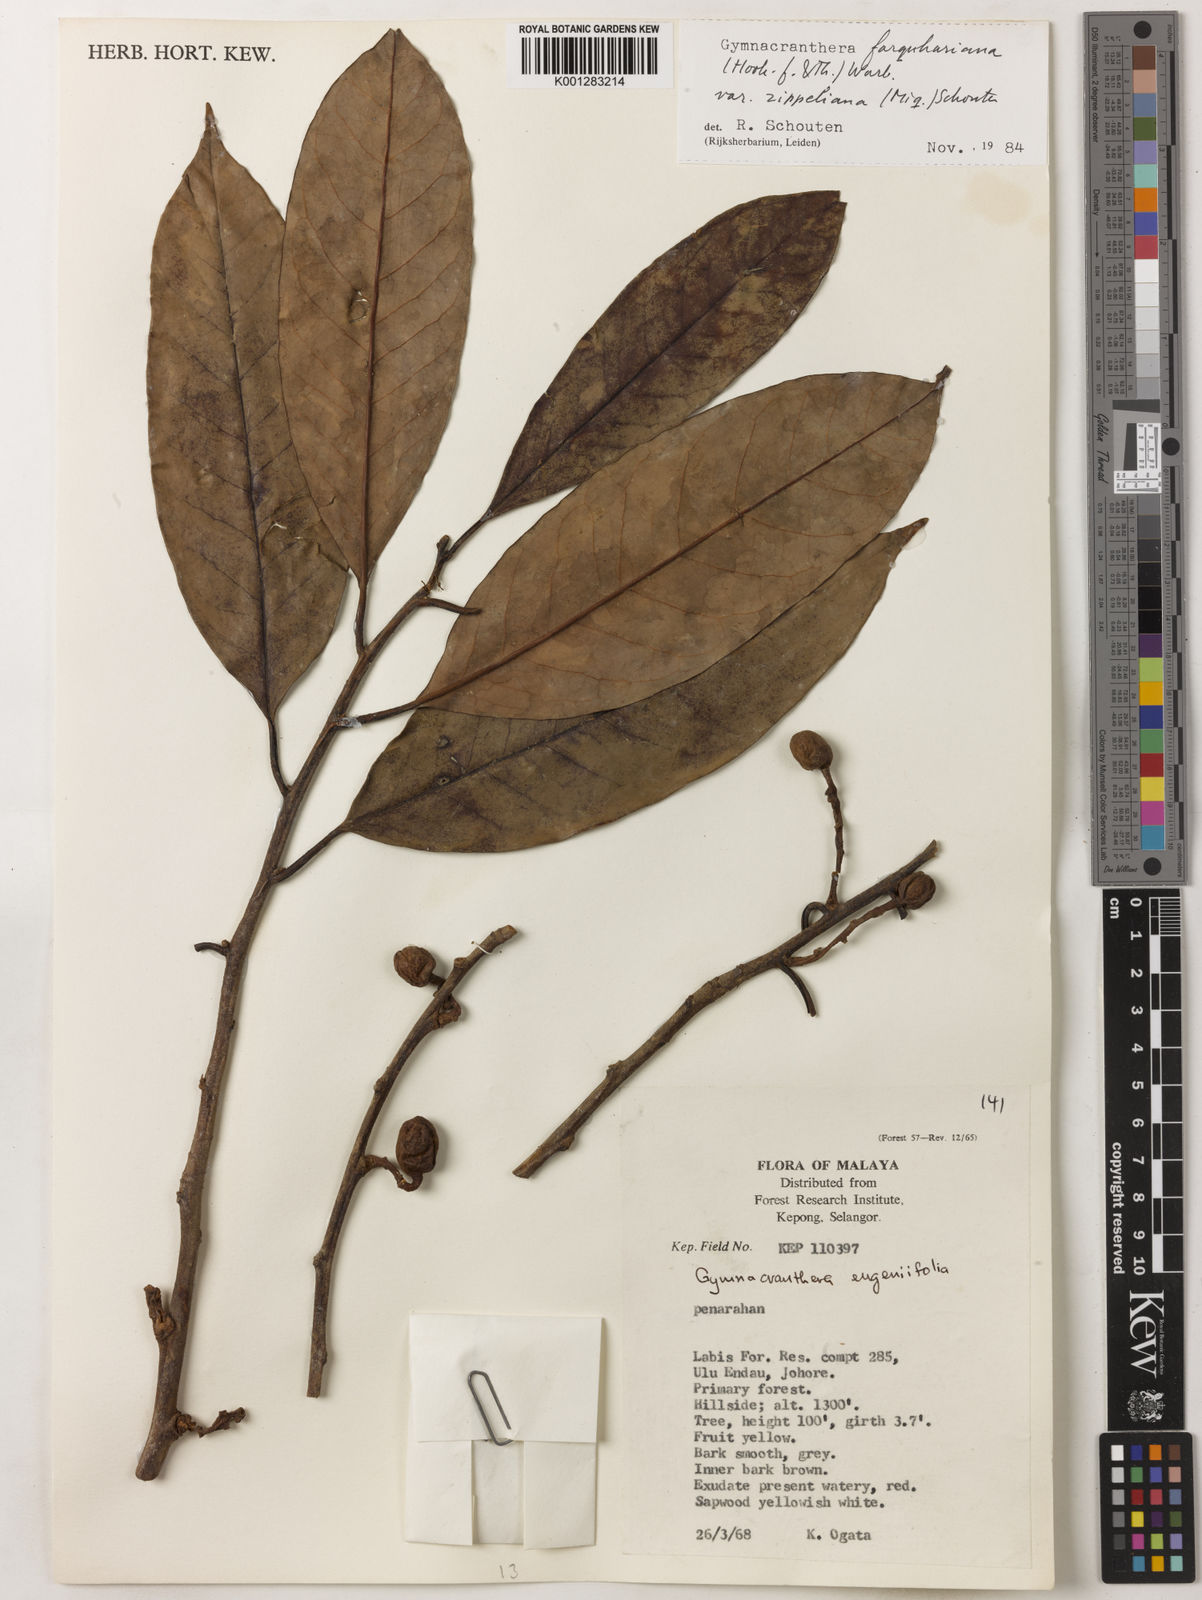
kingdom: Plantae
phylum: Tracheophyta
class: Magnoliopsida
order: Magnoliales
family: Myristicaceae
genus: Gymnacranthera
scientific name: Gymnacranthera farquhariana
